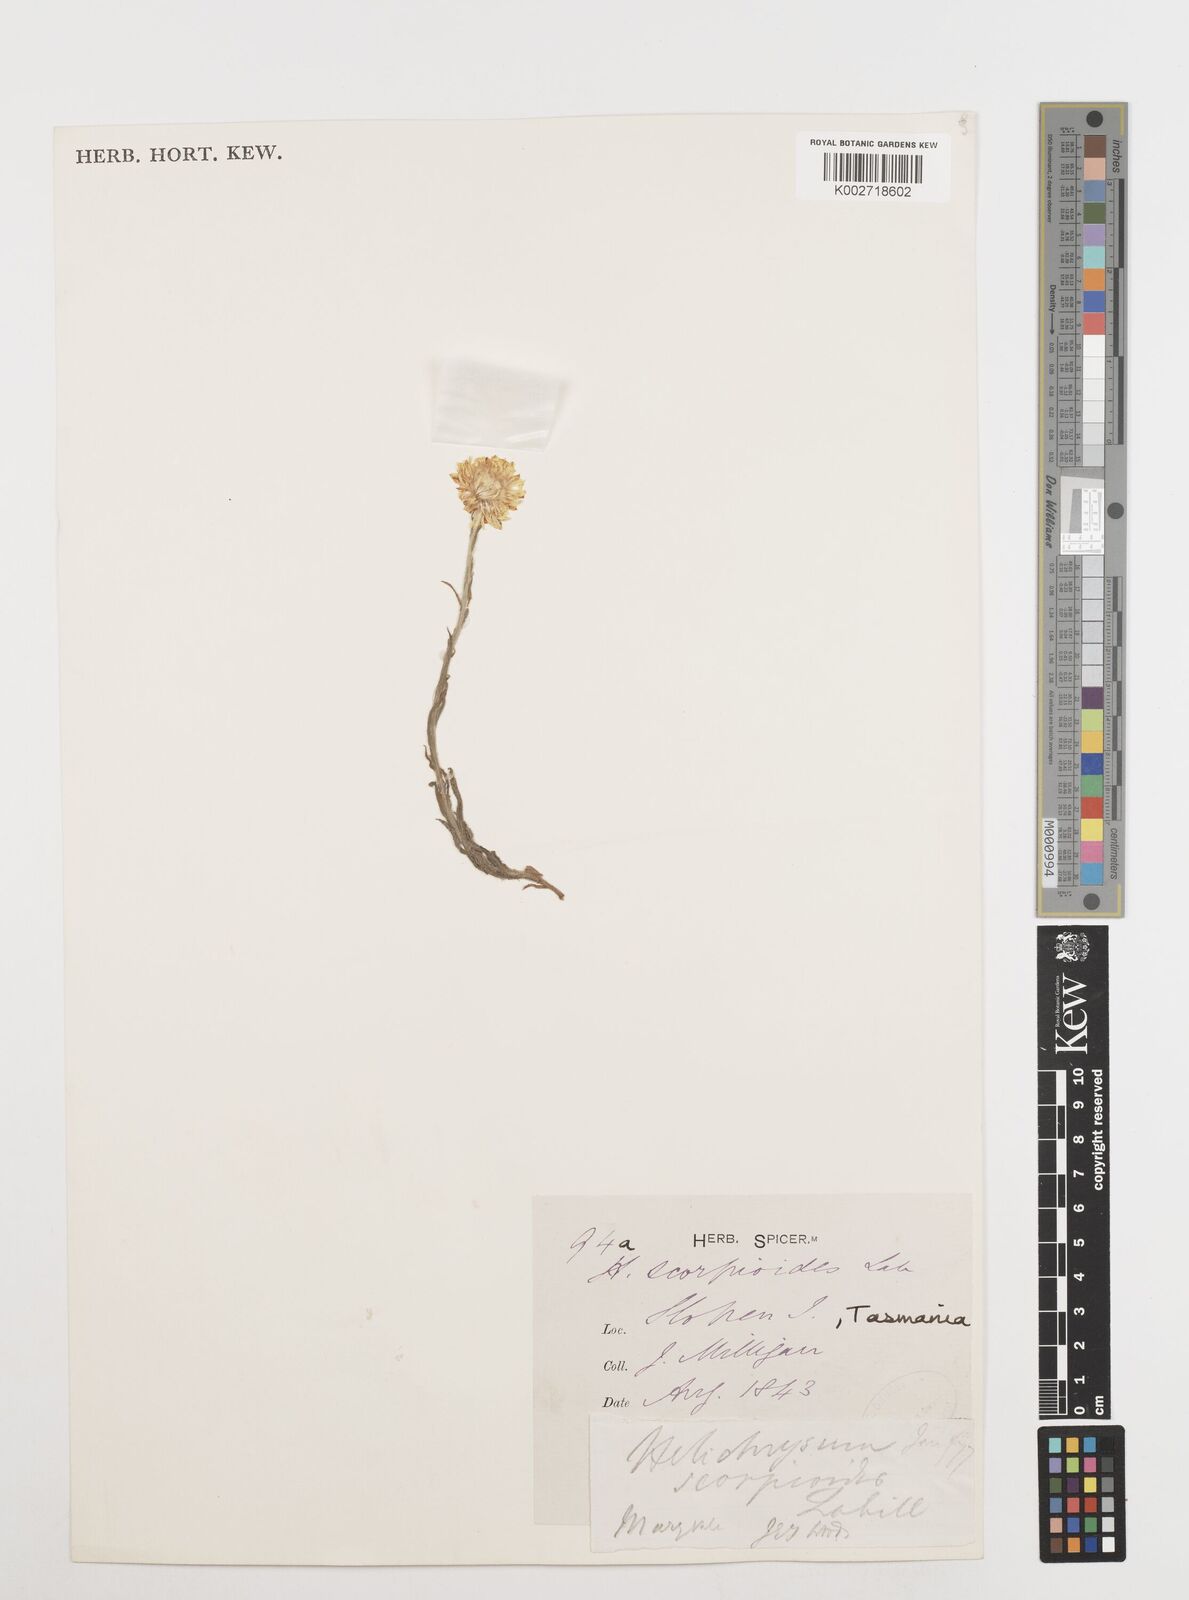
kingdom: Plantae
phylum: Tracheophyta
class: Magnoliopsida
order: Asterales
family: Asteraceae
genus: Coronidium
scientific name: Coronidium scorpioides
